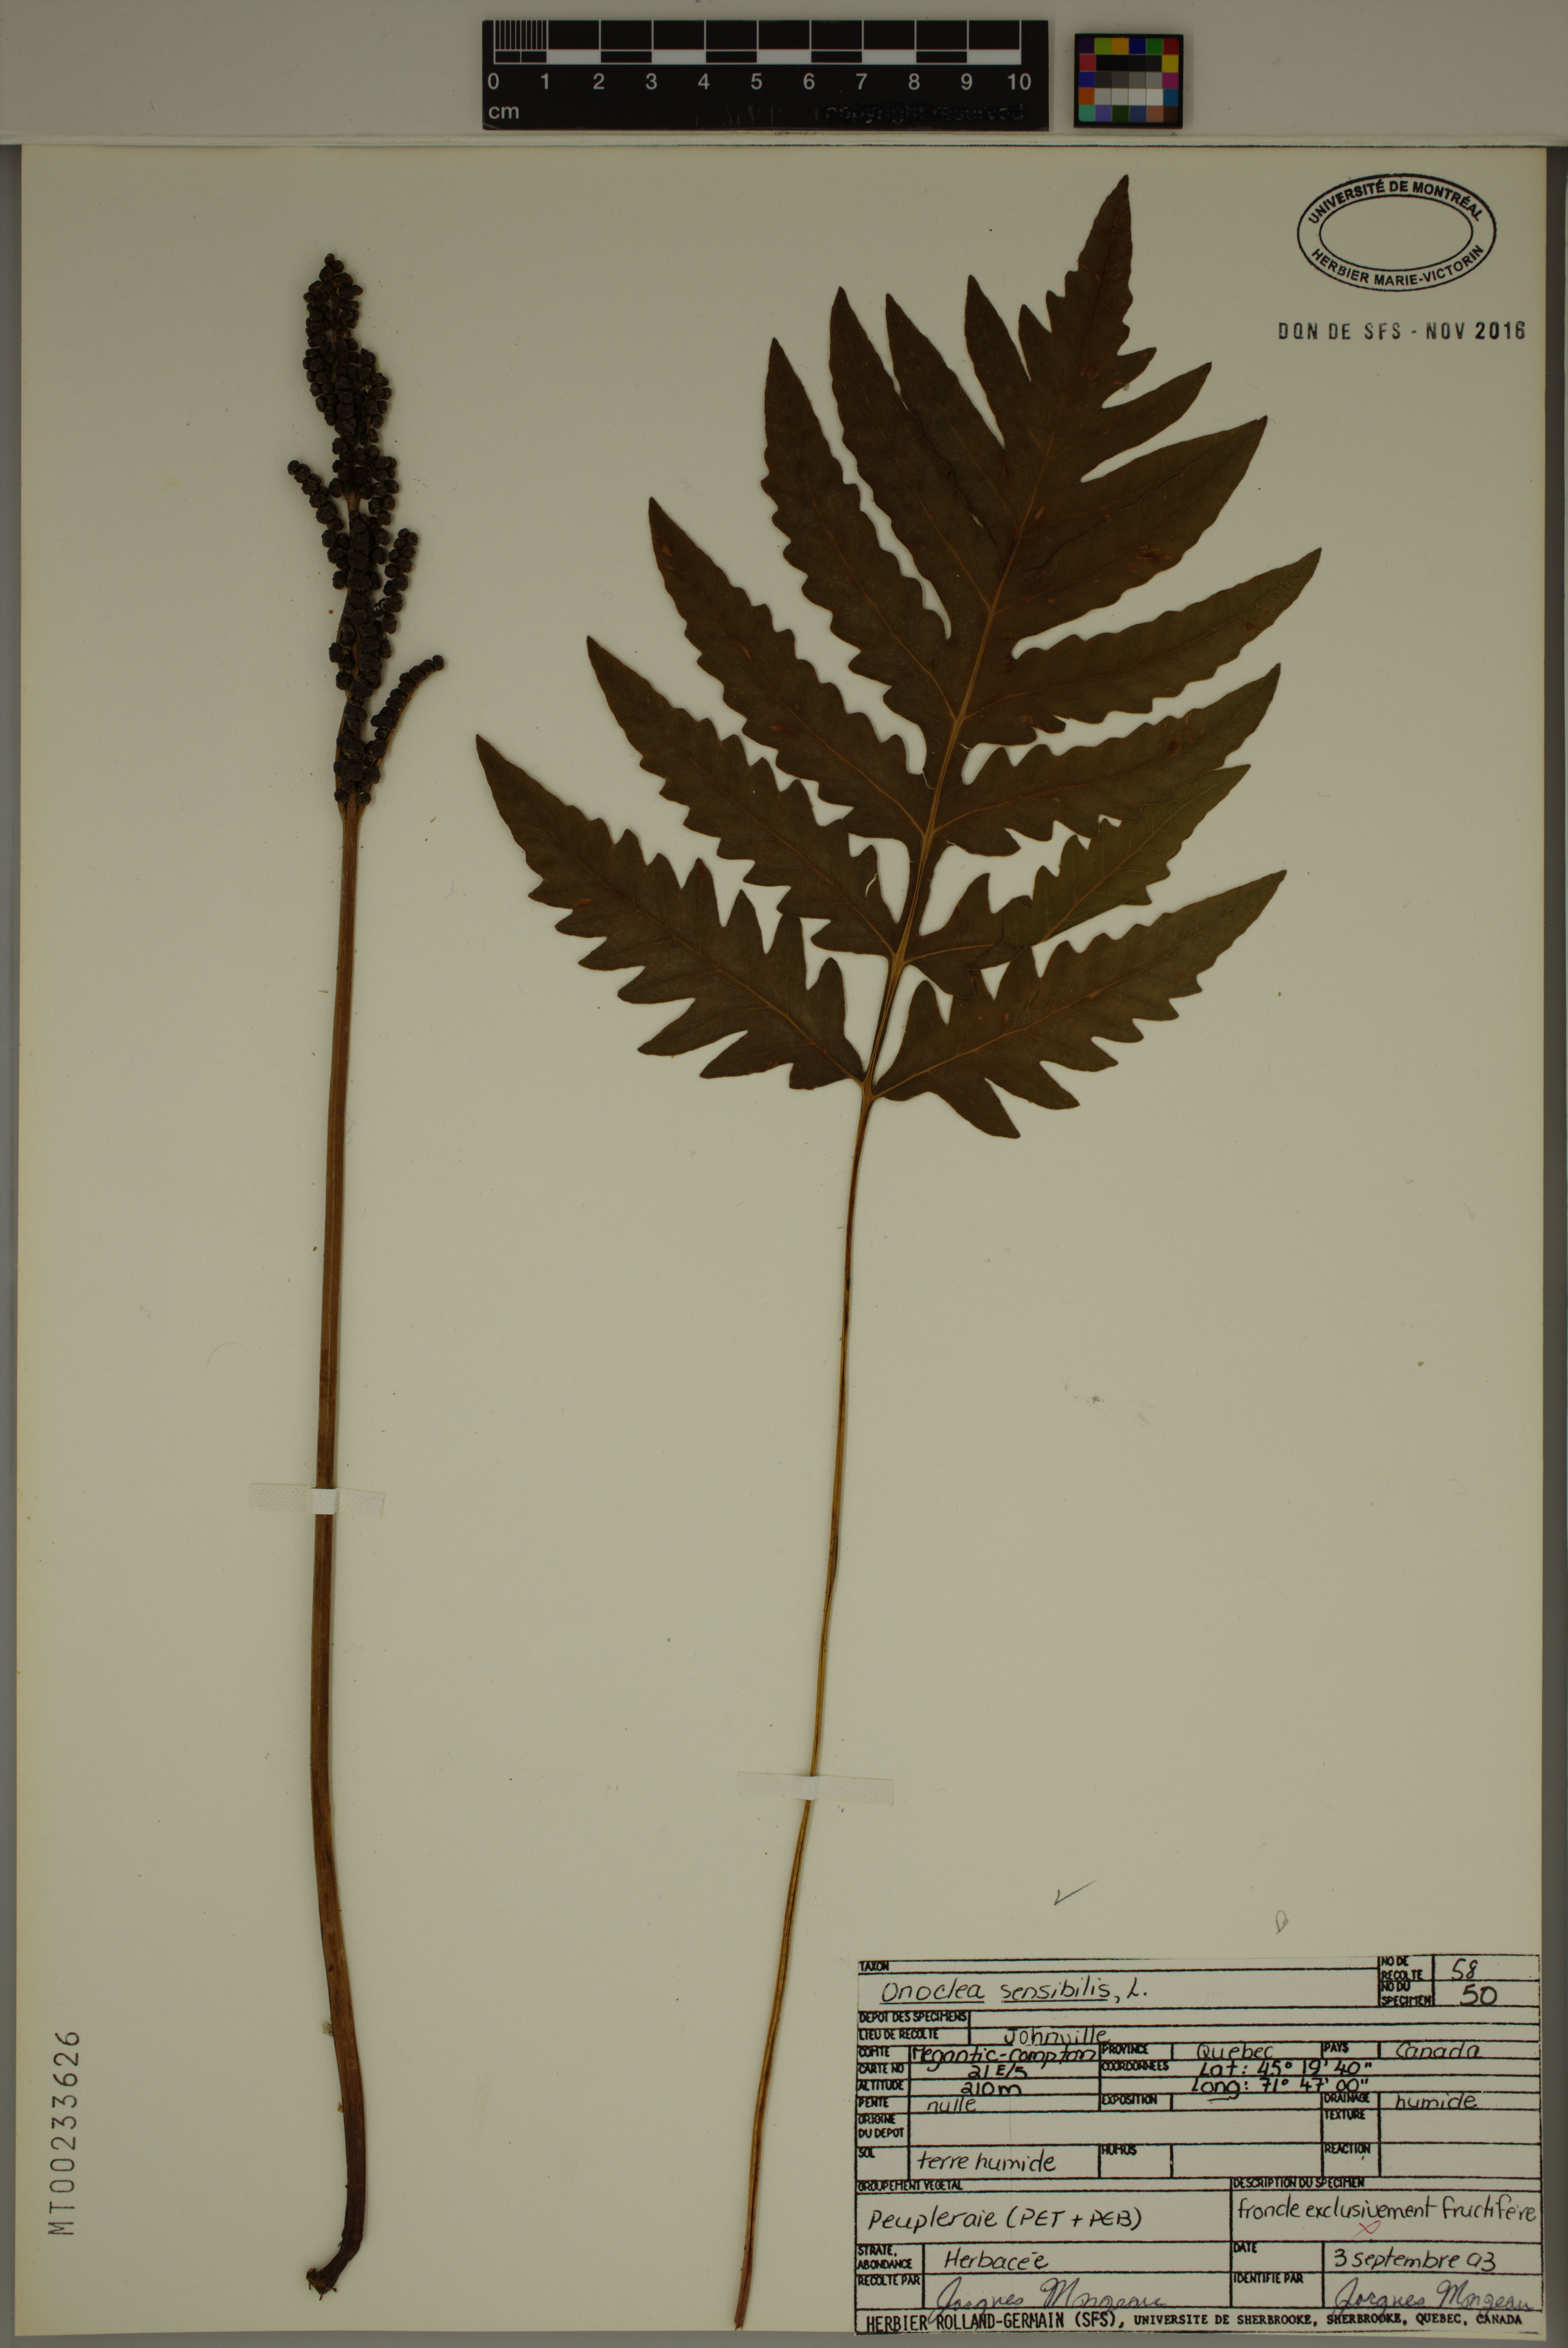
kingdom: Plantae
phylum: Tracheophyta
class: Polypodiopsida
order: Polypodiales
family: Onocleaceae
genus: Onoclea
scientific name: Onoclea sensibilis
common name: Sensitive fern
